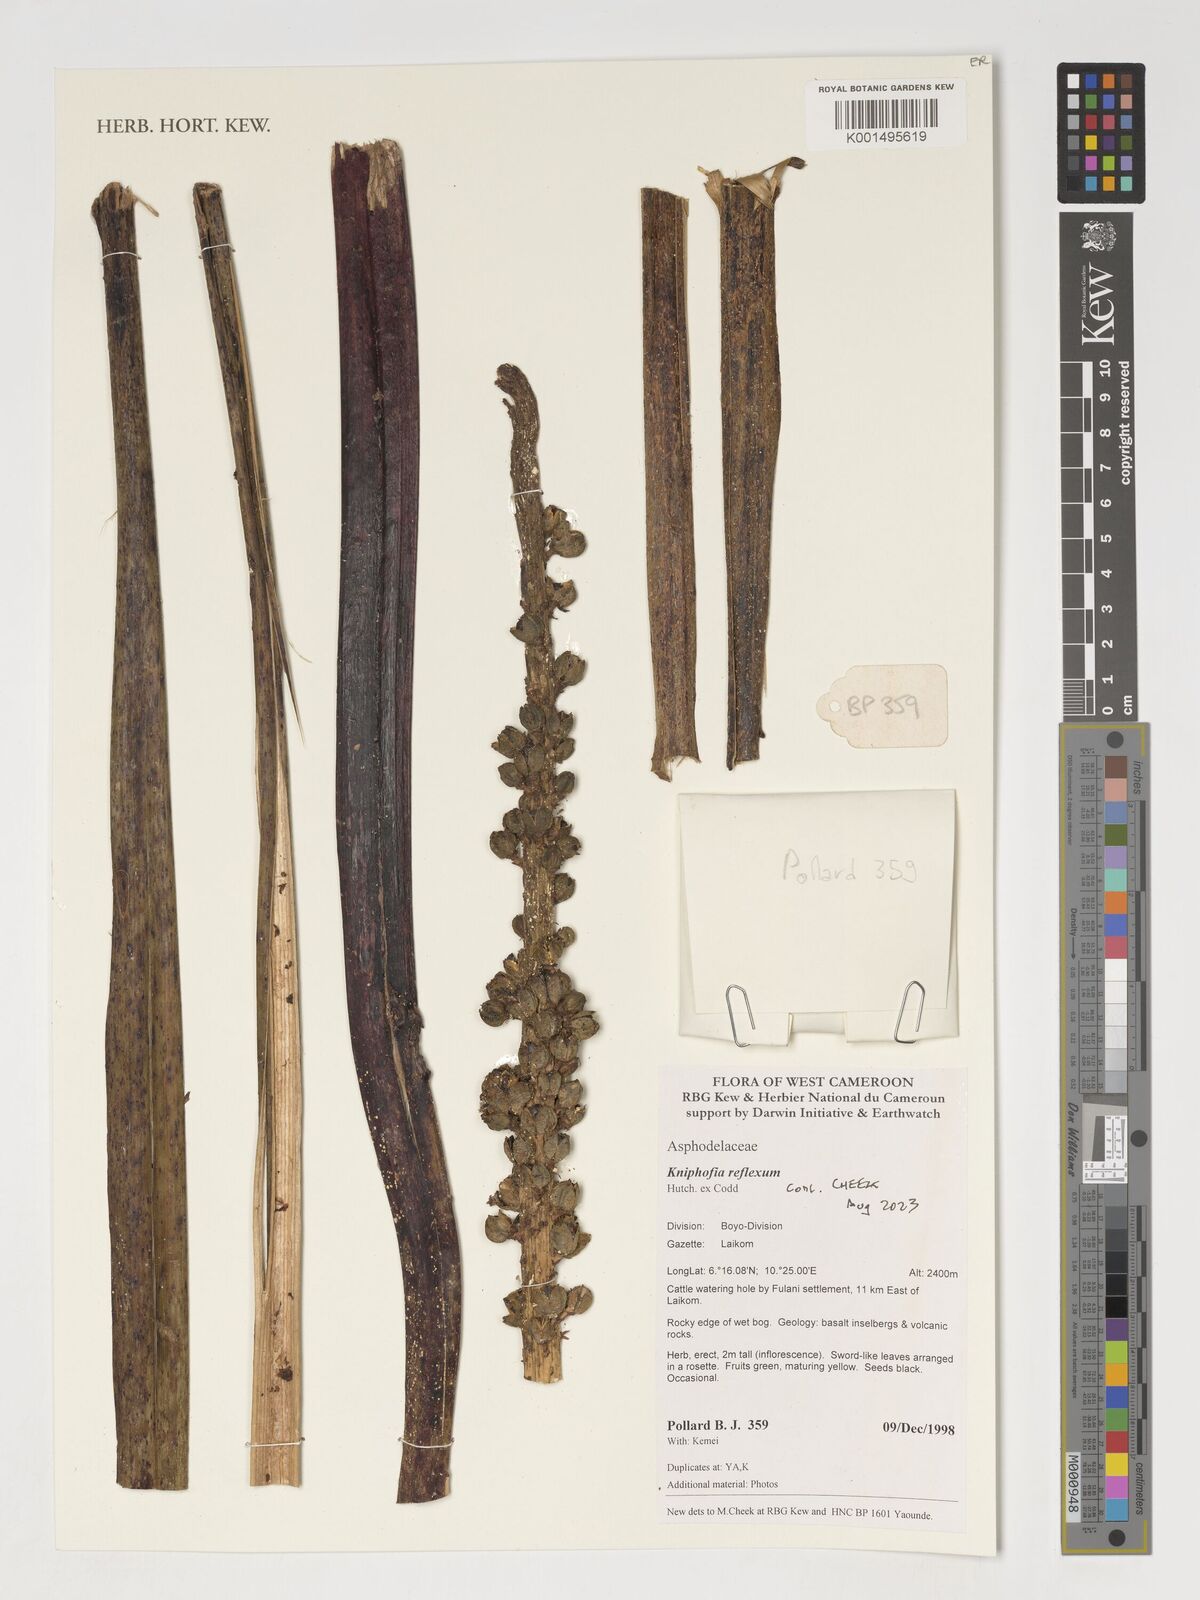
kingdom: Plantae
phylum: Tracheophyta
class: Liliopsida
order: Asparagales
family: Asphodelaceae
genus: Kniphofia
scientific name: Kniphofia reflexa
